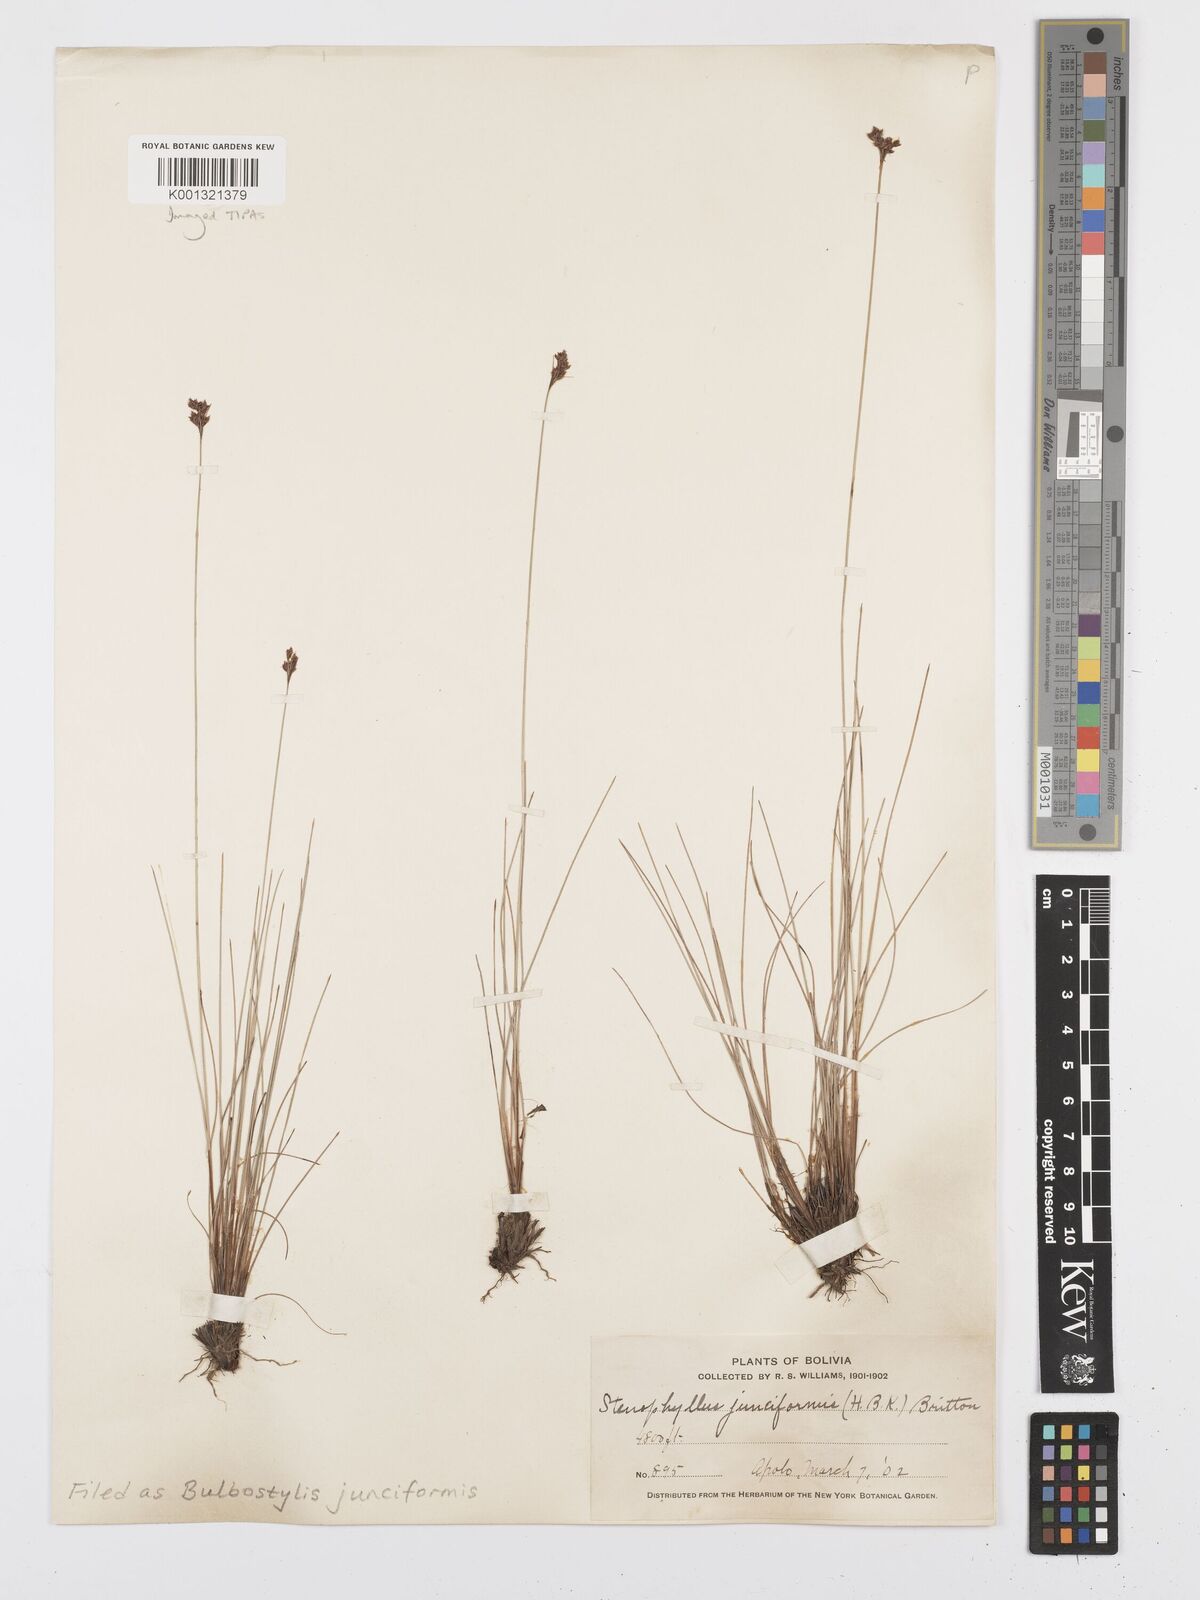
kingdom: Plantae
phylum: Tracheophyta
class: Liliopsida
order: Poales
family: Cyperaceae
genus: Bulbostylis
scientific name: Bulbostylis junciformis
